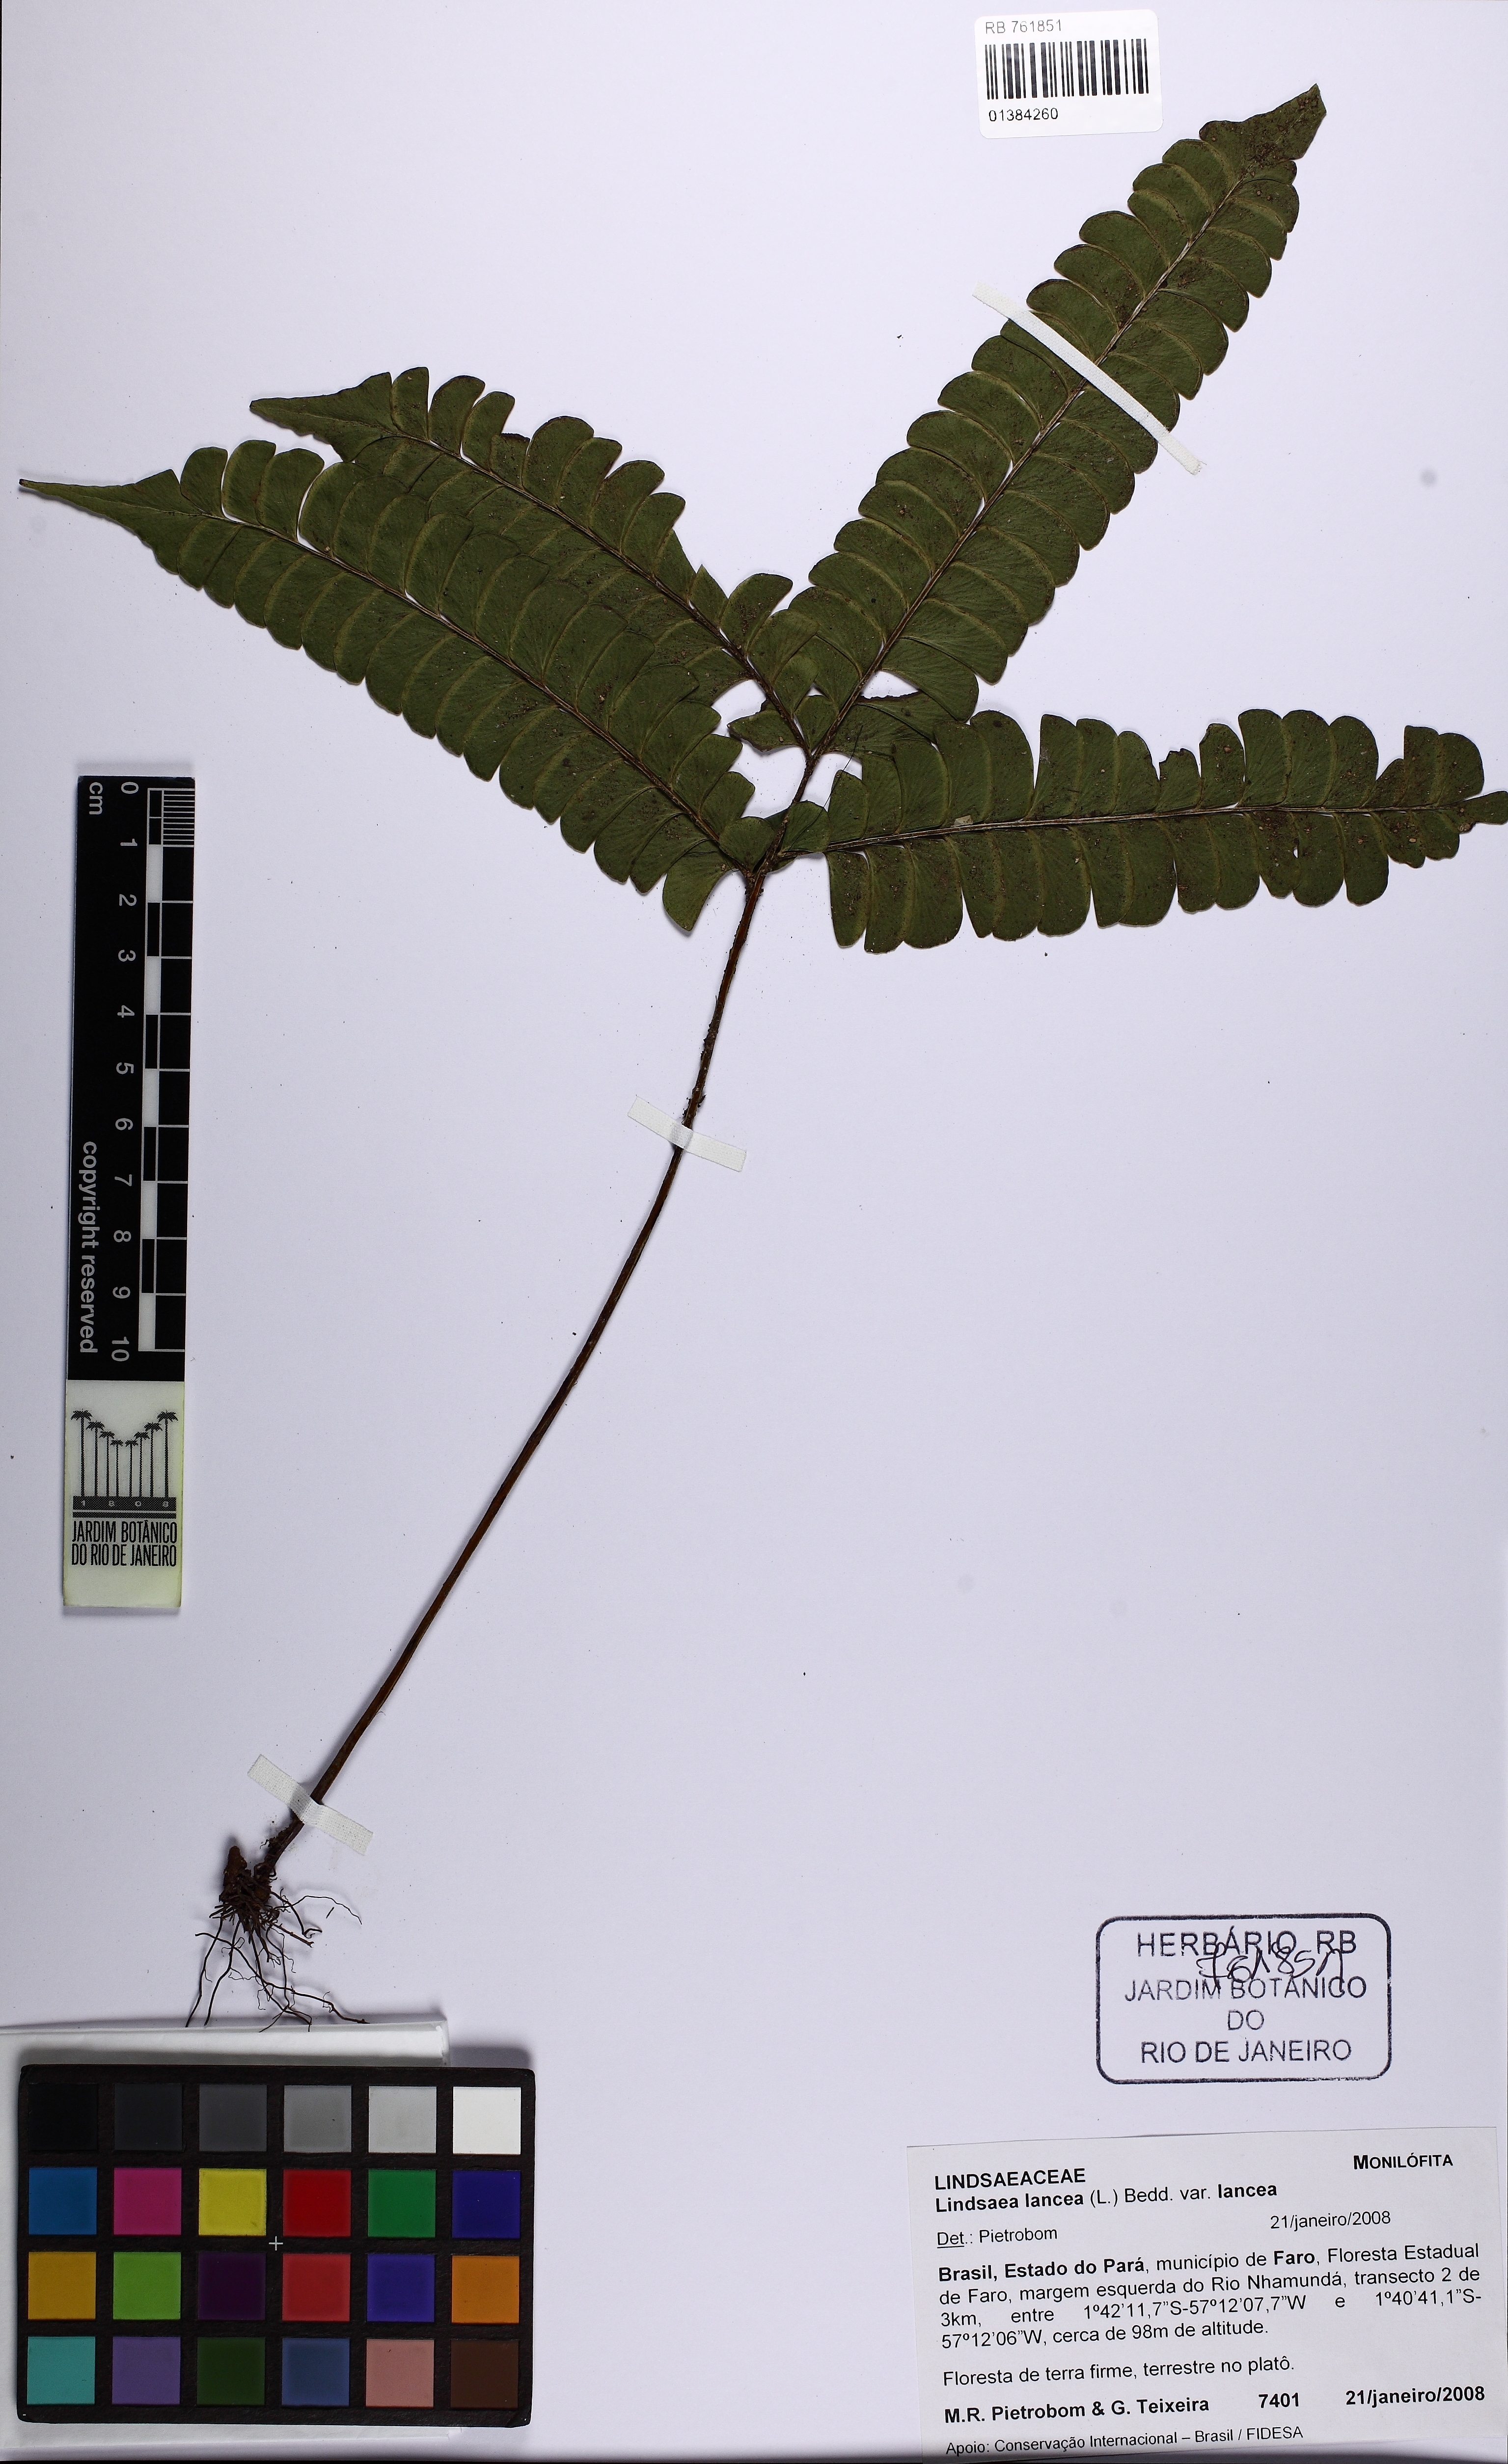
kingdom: Plantae
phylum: Tracheophyta
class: Polypodiopsida
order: Polypodiales
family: Lindsaeaceae
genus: Lindsaea
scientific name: Lindsaea lancea
